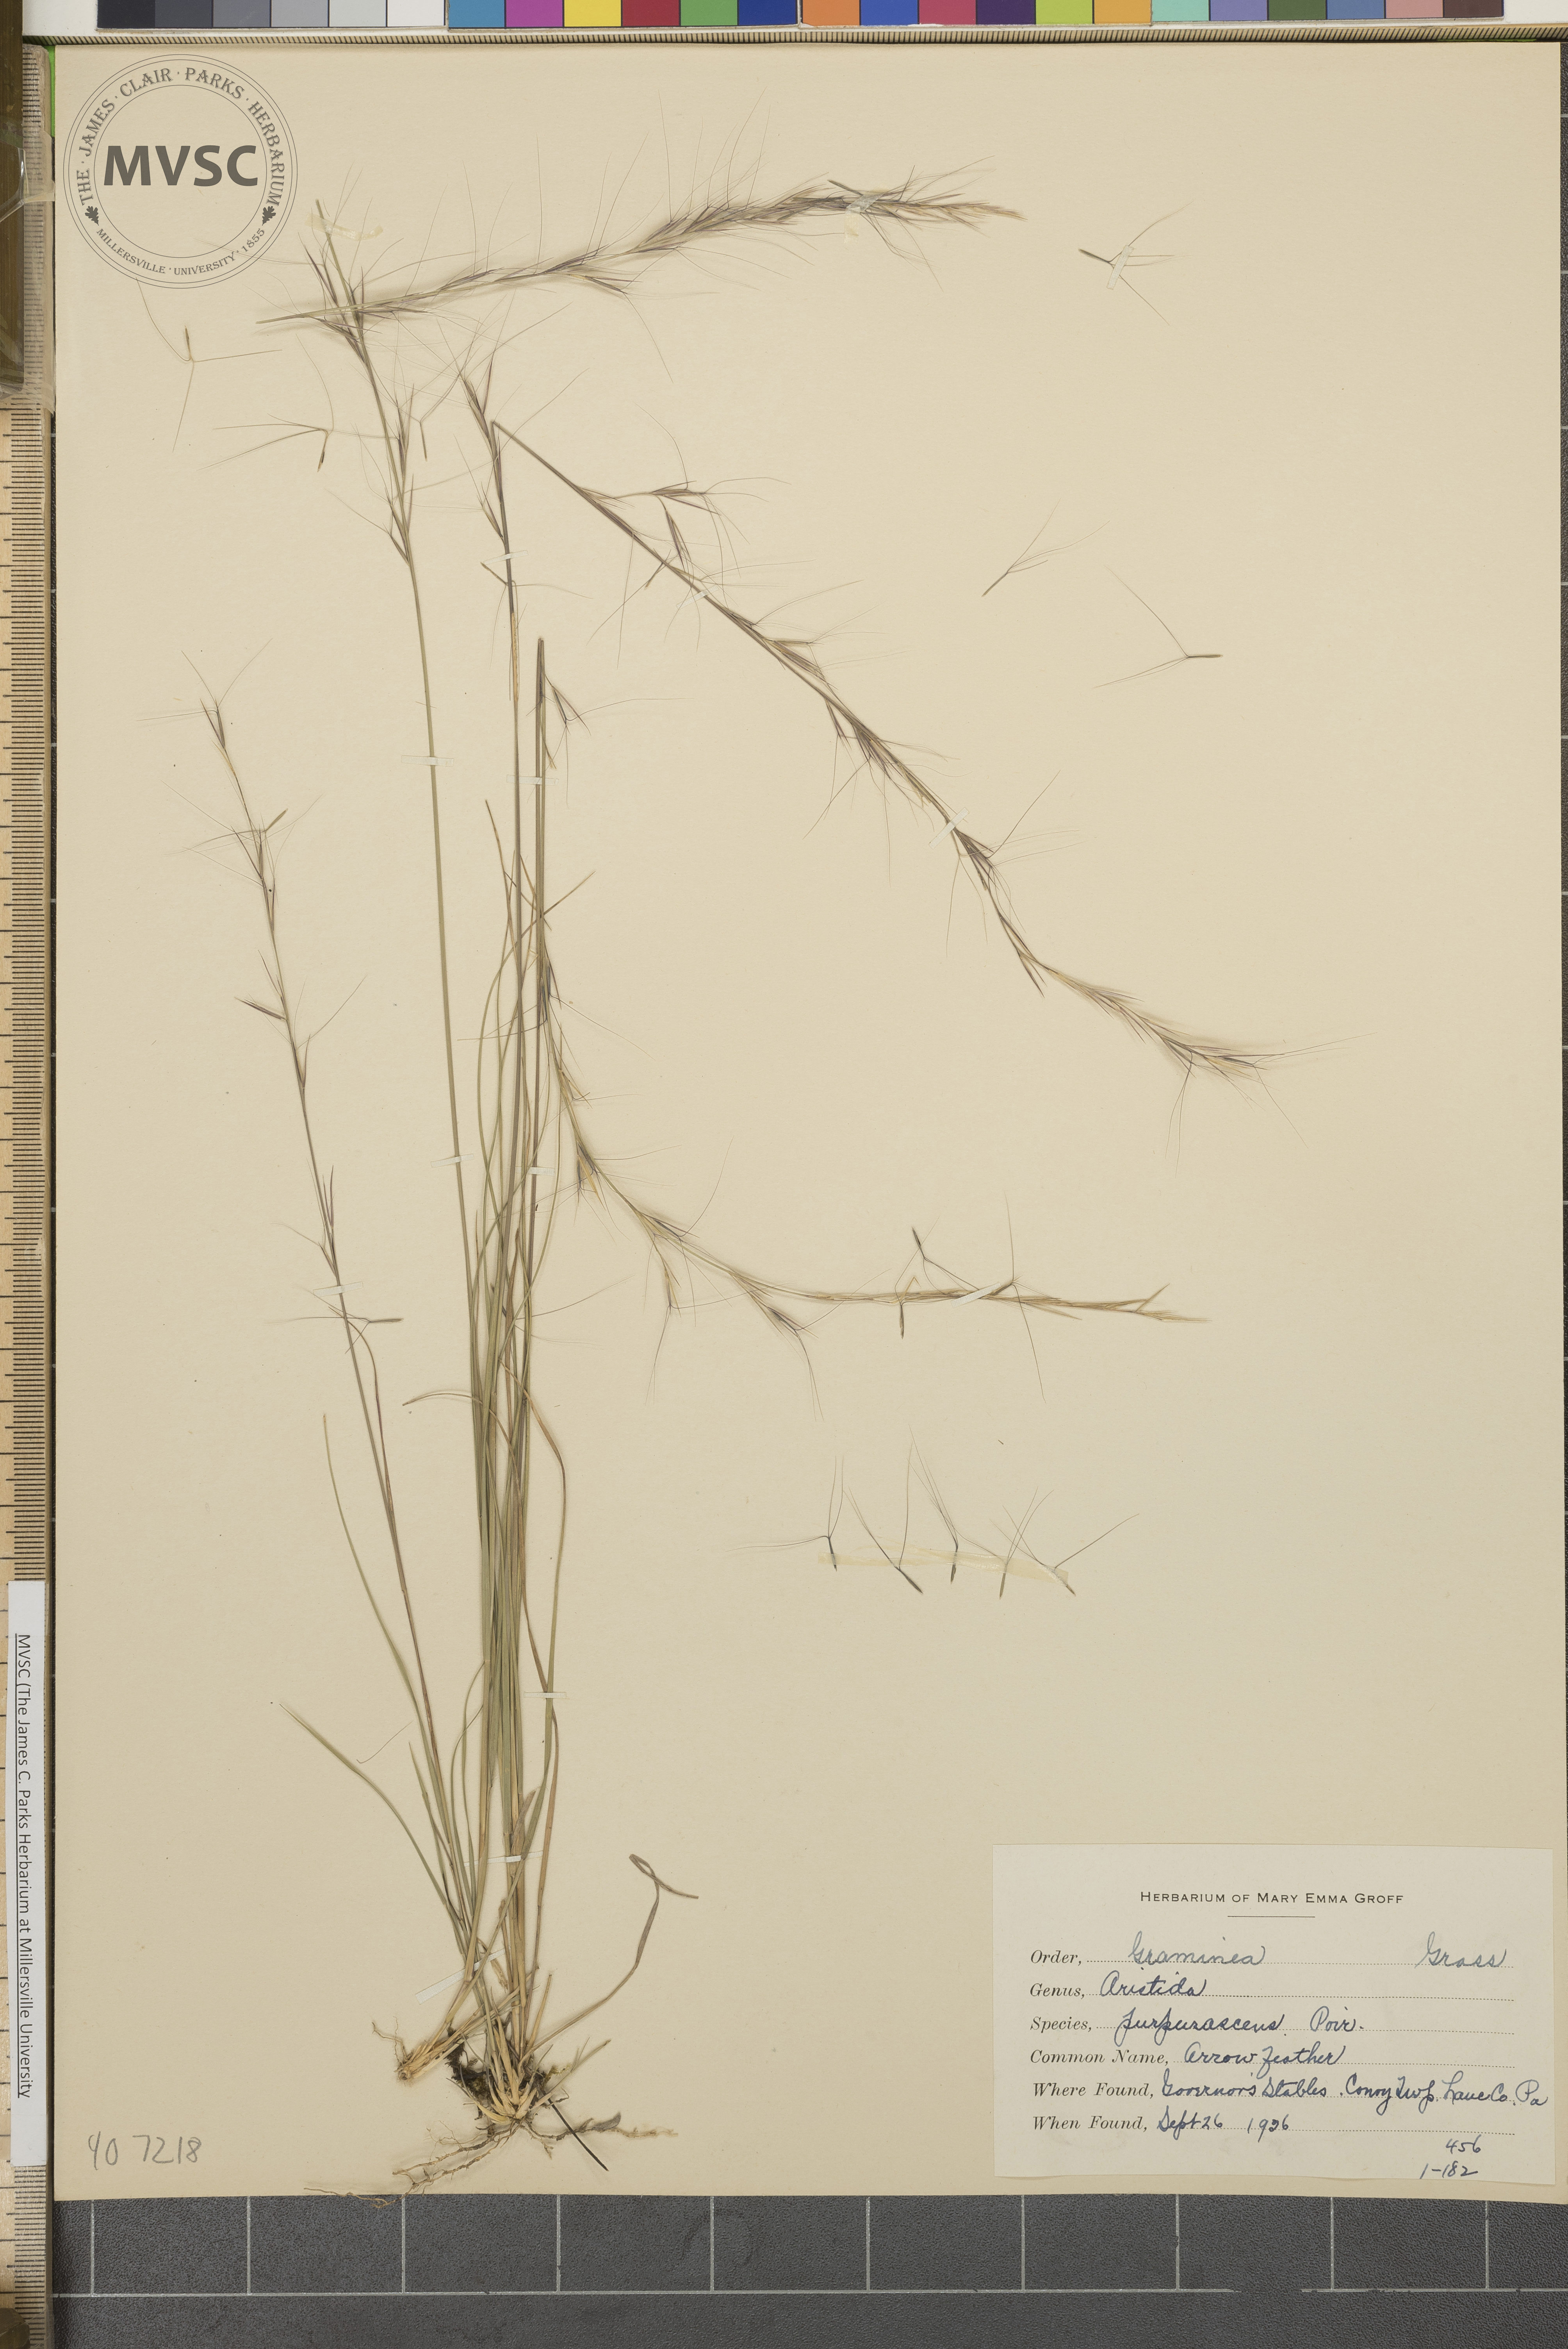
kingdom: Plantae
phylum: Tracheophyta
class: Liliopsida
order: Poales
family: Poaceae
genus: Aristida
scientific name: Aristida purpurascens
